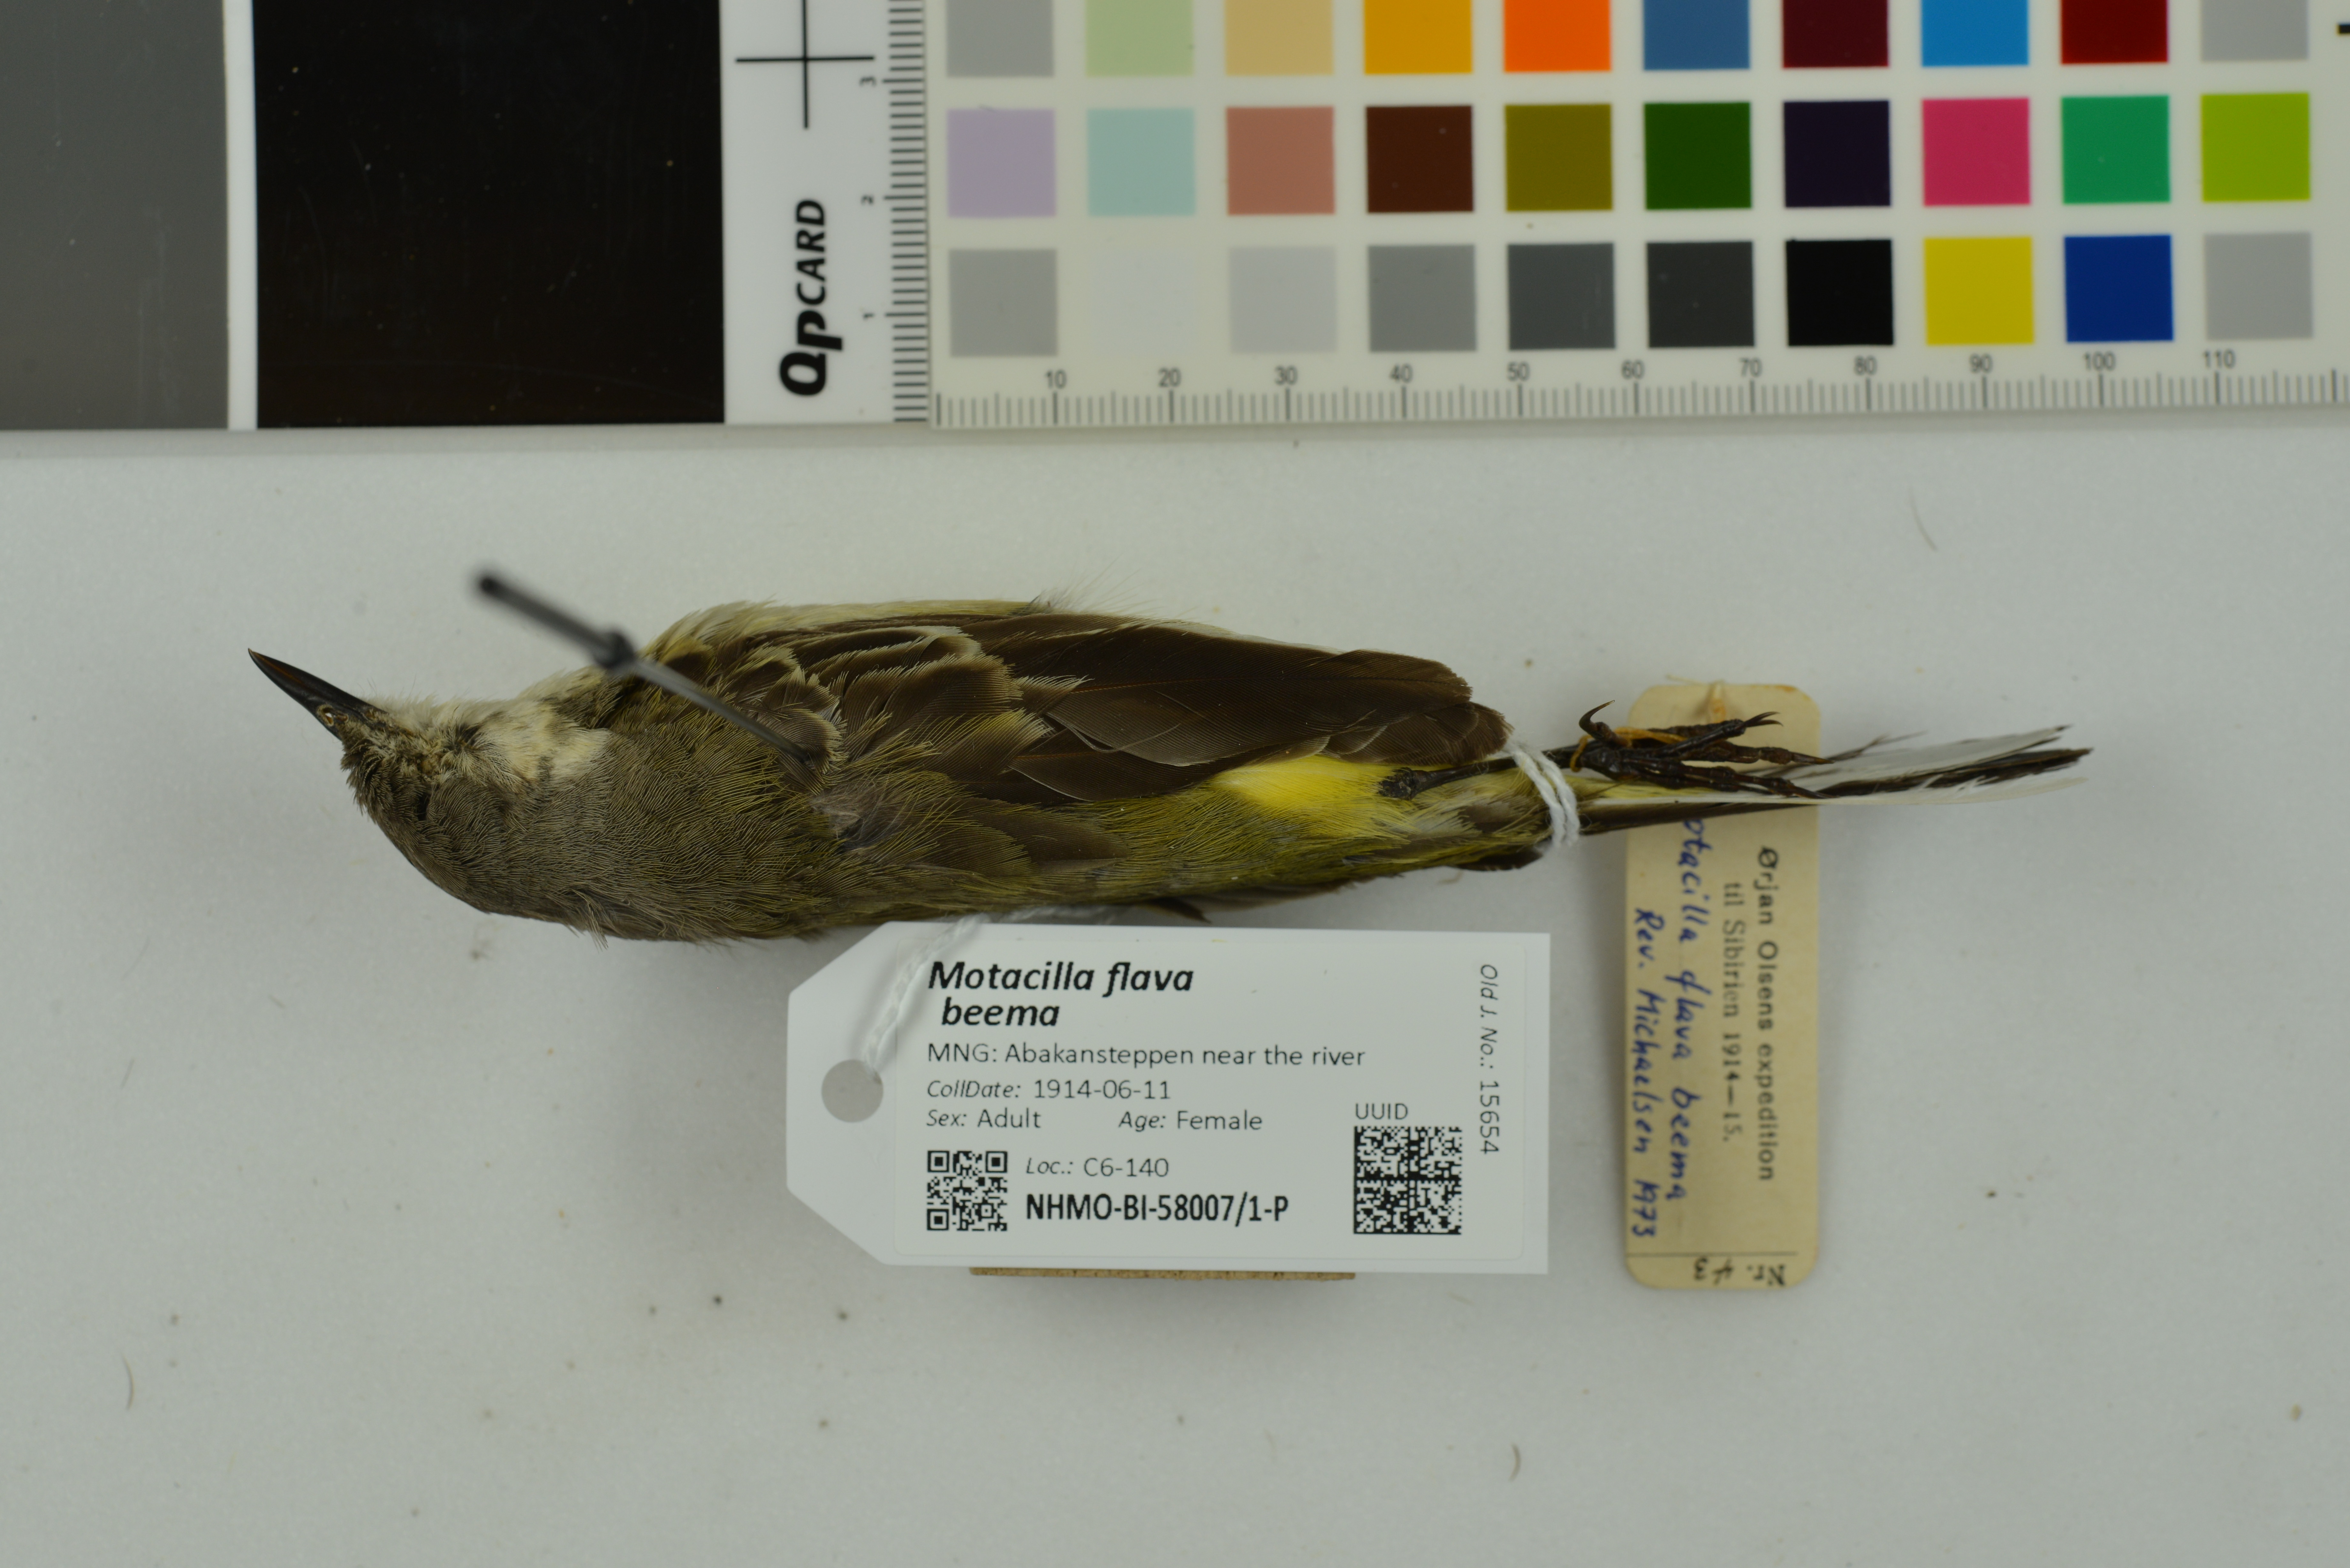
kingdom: Animalia
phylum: Chordata
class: Aves
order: Passeriformes
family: Motacillidae
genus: Motacilla
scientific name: Motacilla flava
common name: Western yellow wagtail
